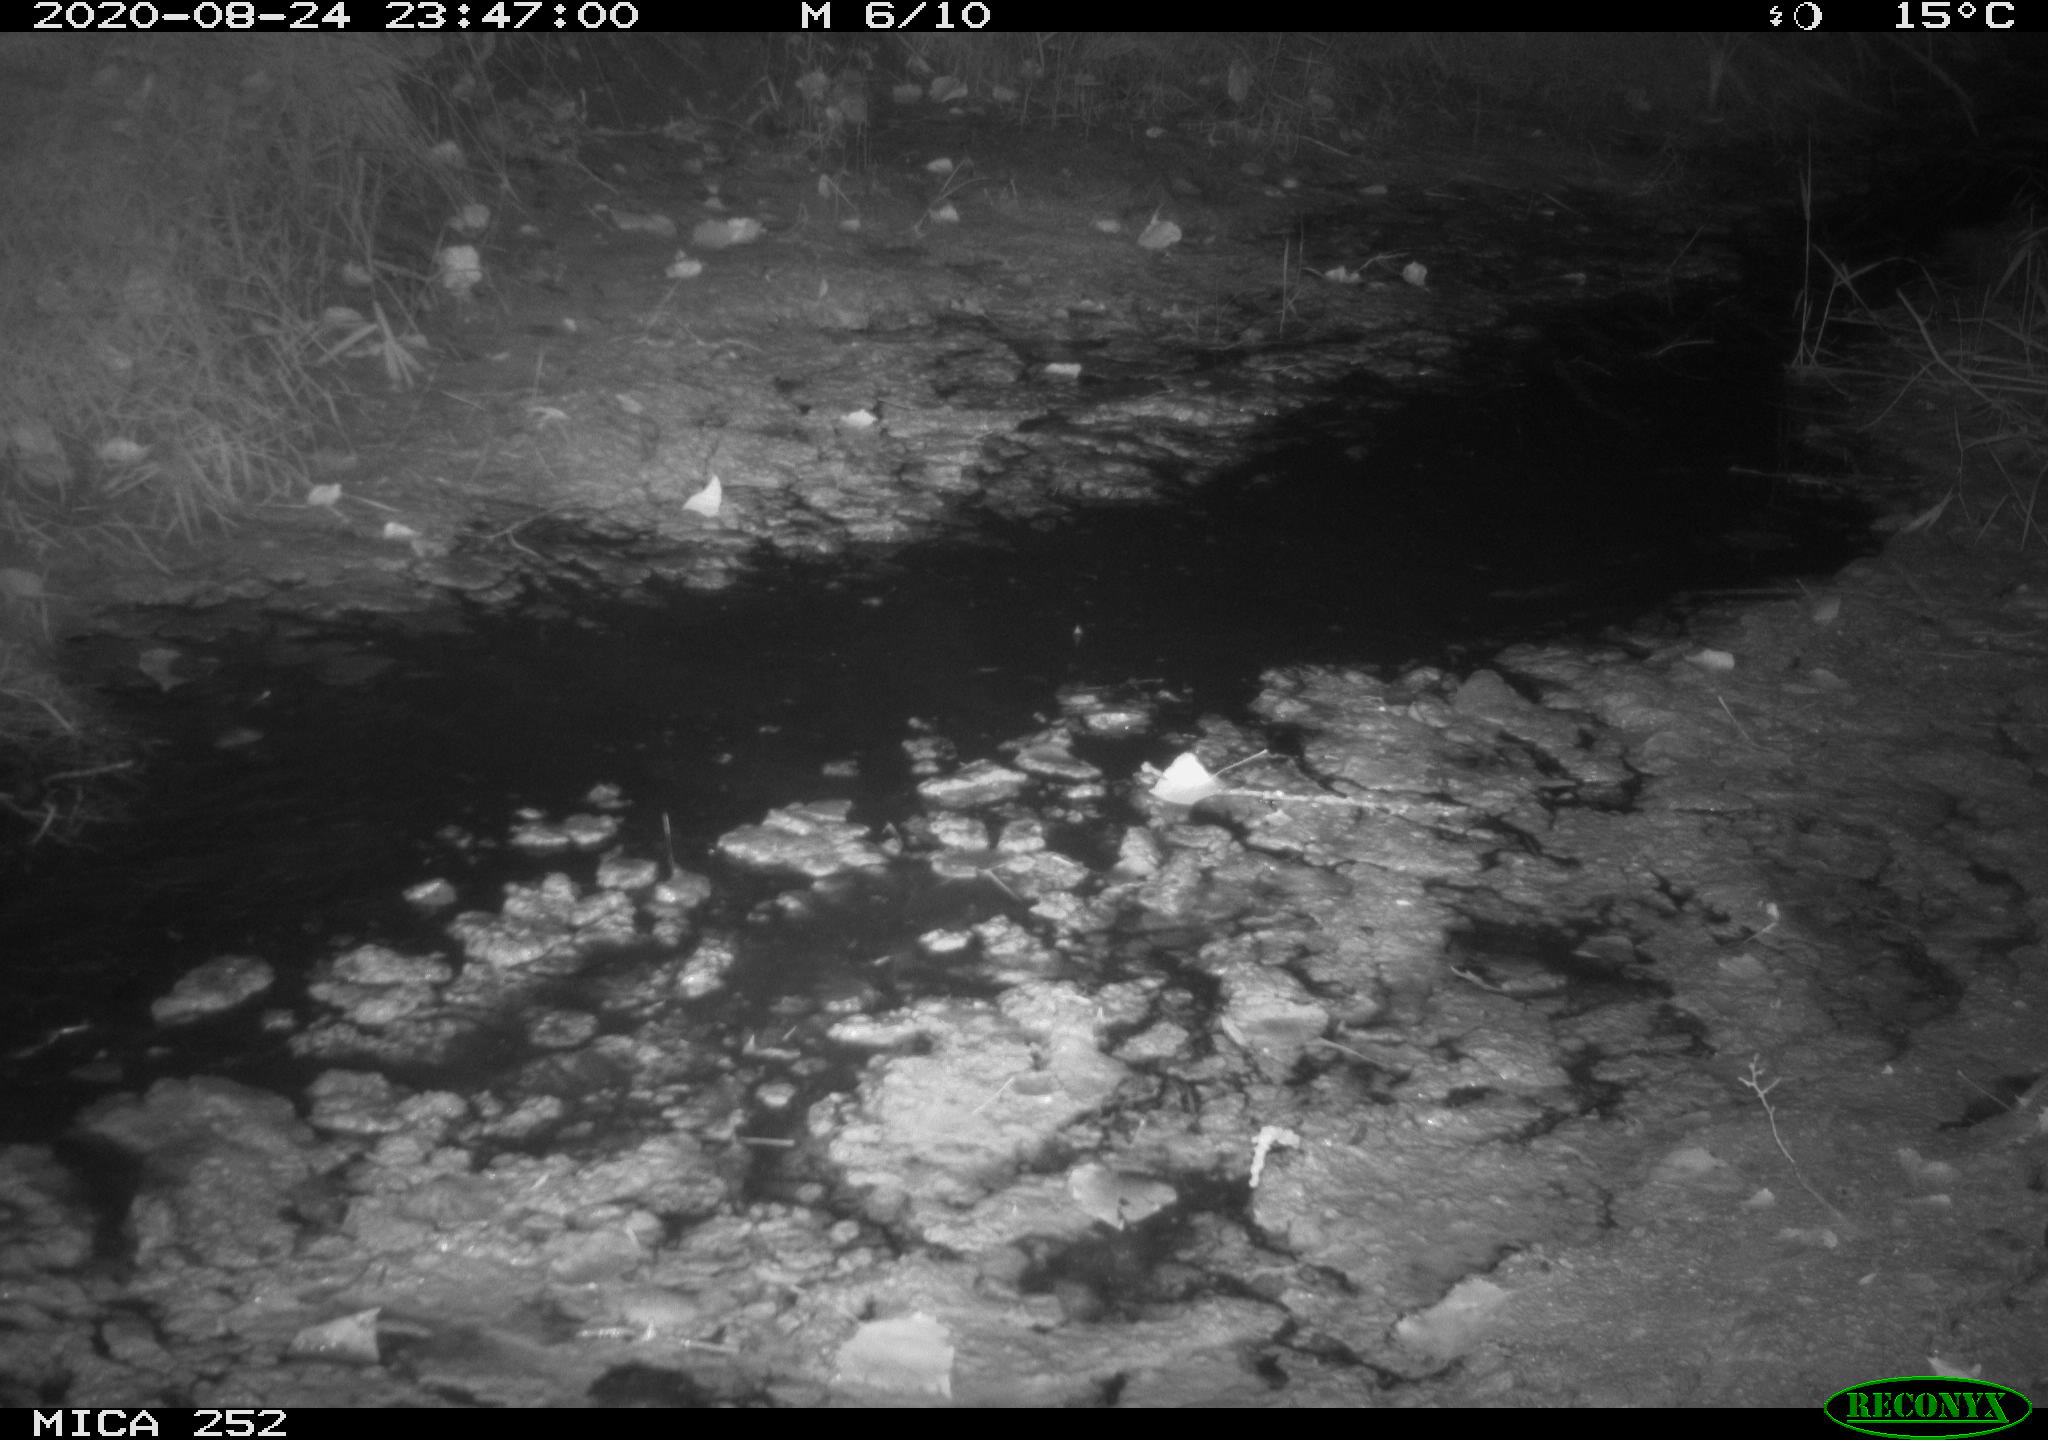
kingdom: Animalia
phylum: Chordata
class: Mammalia
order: Rodentia
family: Castoridae
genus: Castor
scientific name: Castor fiber
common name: Eurasian beaver
